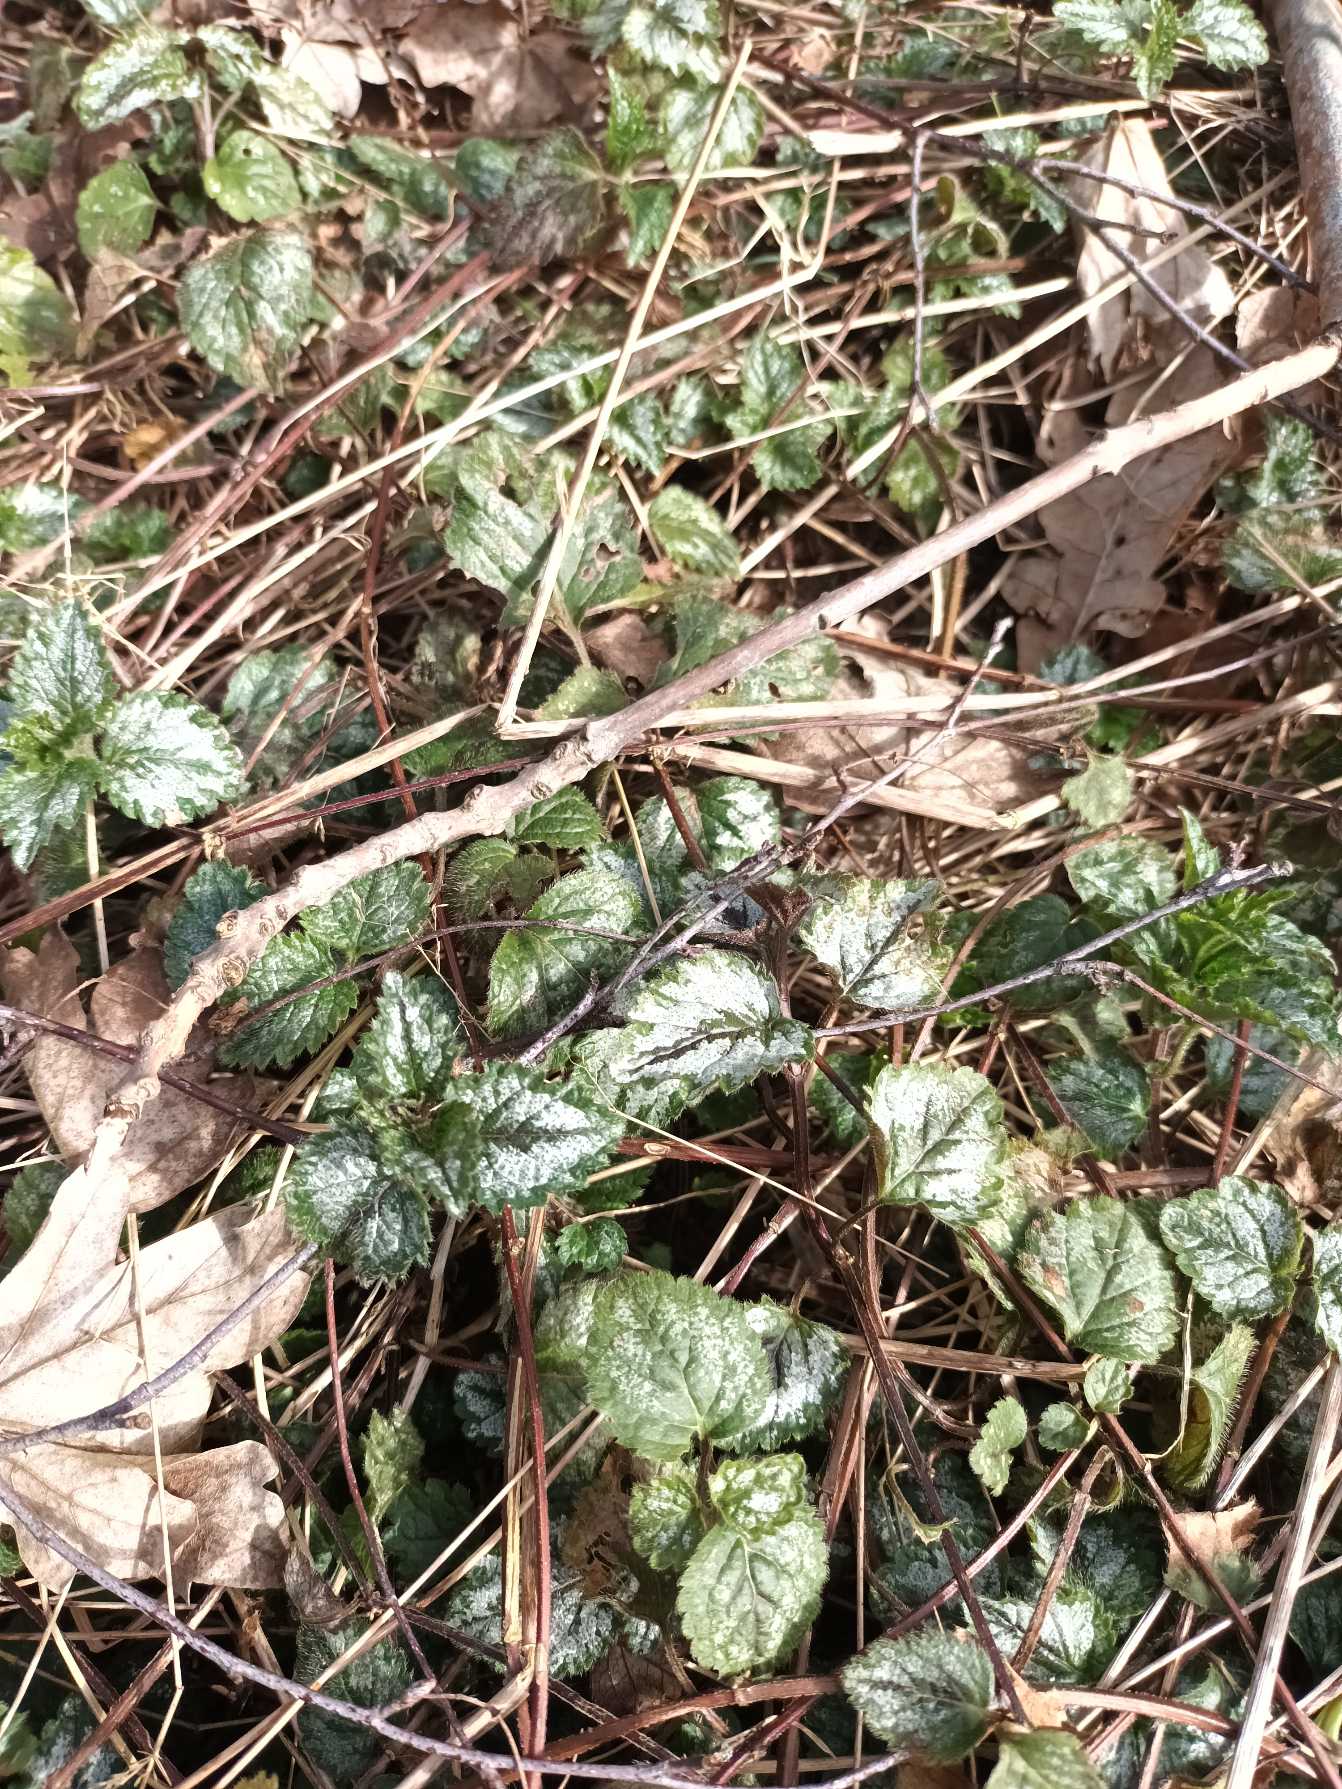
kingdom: Plantae
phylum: Tracheophyta
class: Magnoliopsida
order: Lamiales
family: Lamiaceae
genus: Lamium
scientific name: Lamium galeobdolon
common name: Have-guldnælde
